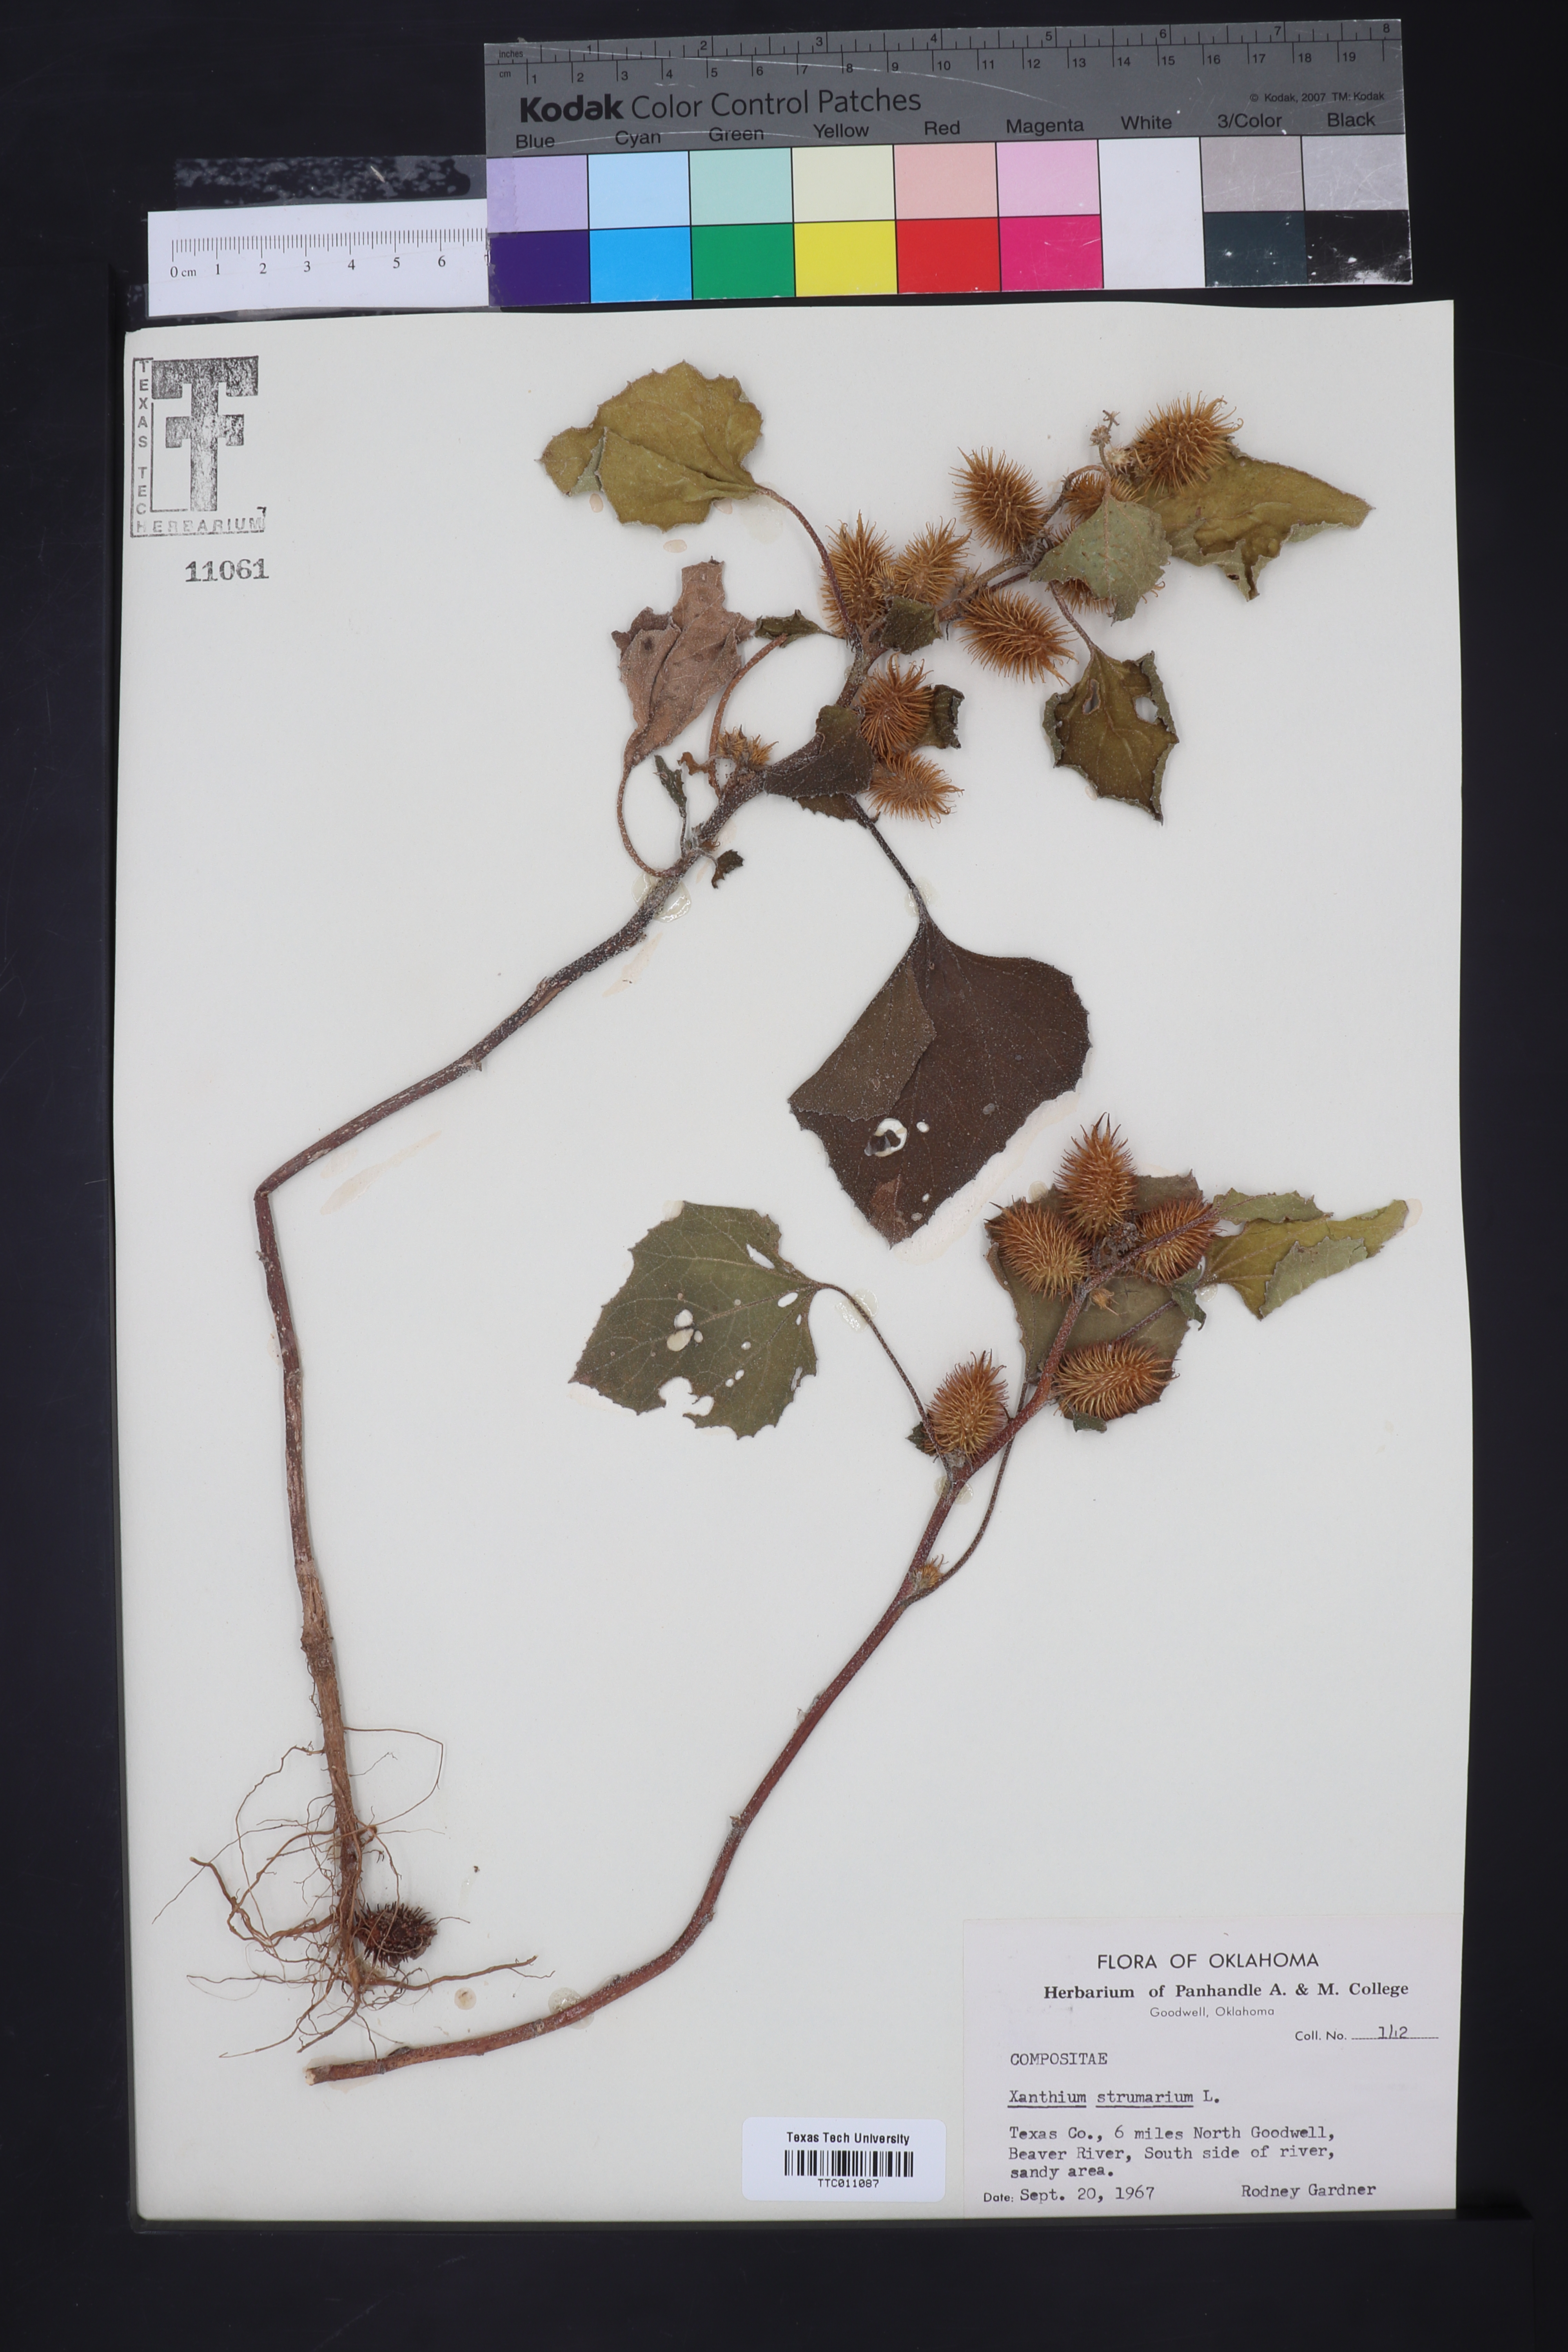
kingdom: Plantae
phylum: Tracheophyta
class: Magnoliopsida
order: Asterales
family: Asteraceae
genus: Xanthium
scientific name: Xanthium strumarium
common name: Rough cocklebur
